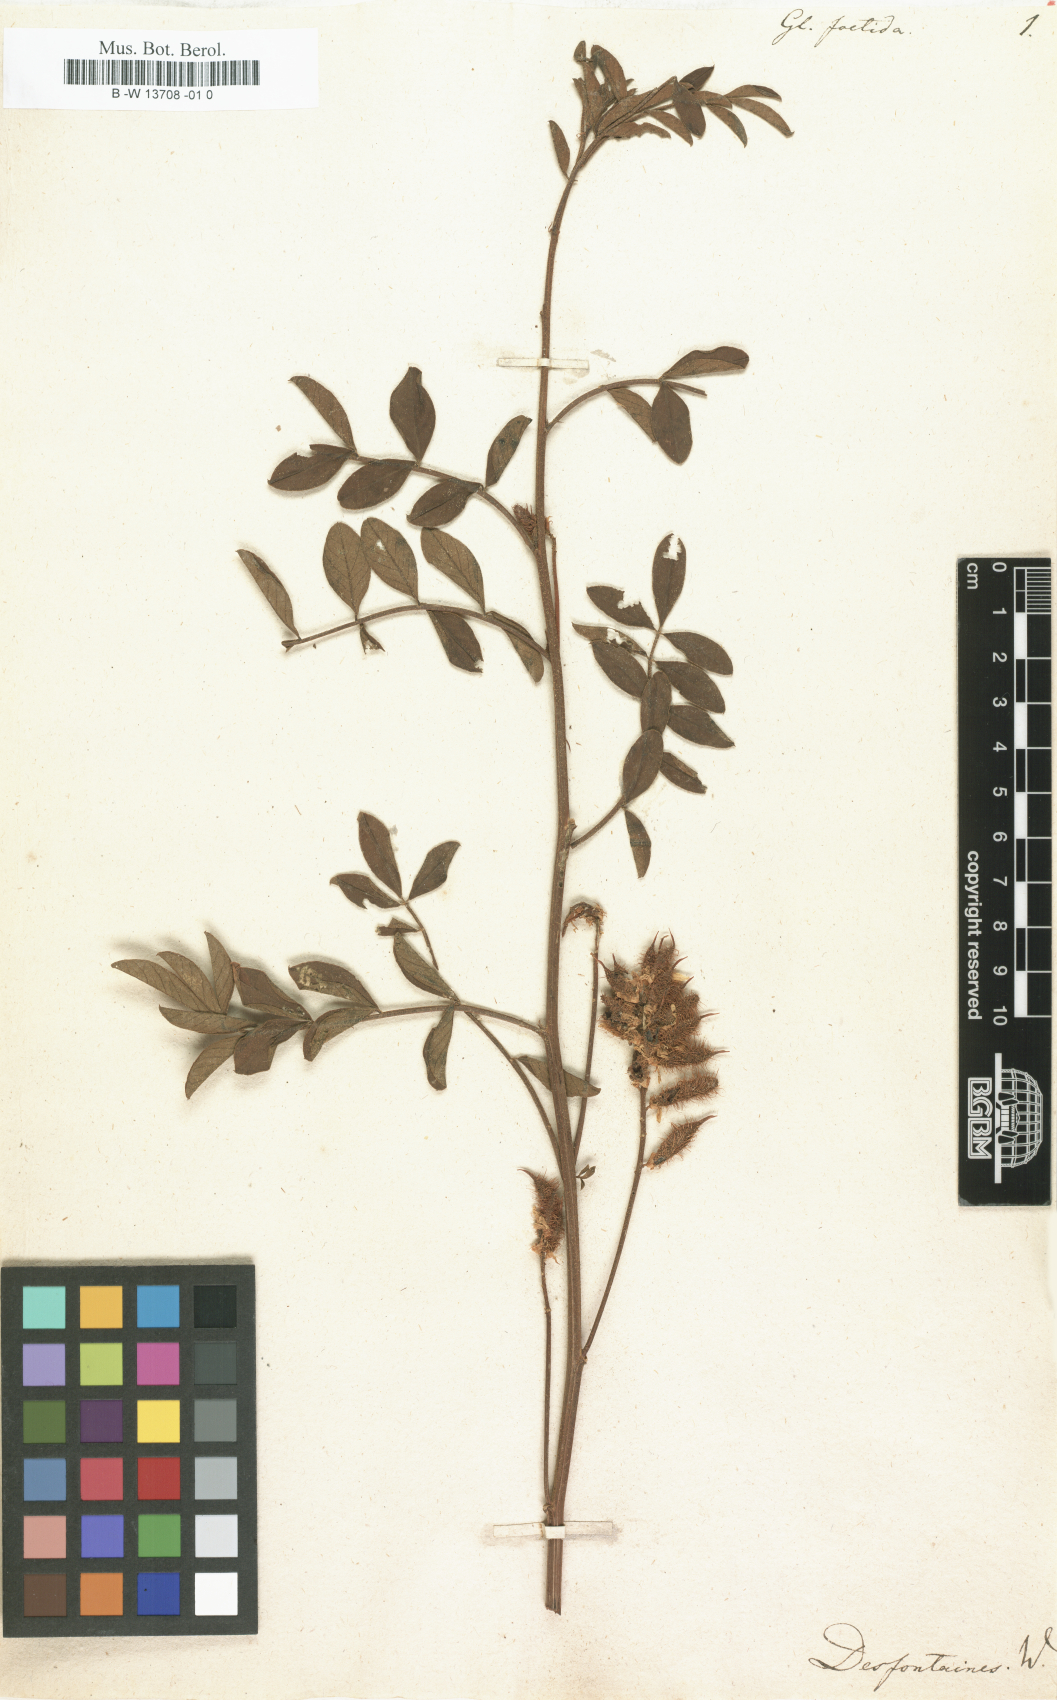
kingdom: Plantae
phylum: Tracheophyta
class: Magnoliopsida
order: Fabales
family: Fabaceae
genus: Glycyrrhiza
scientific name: Glycyrrhiza foetida
